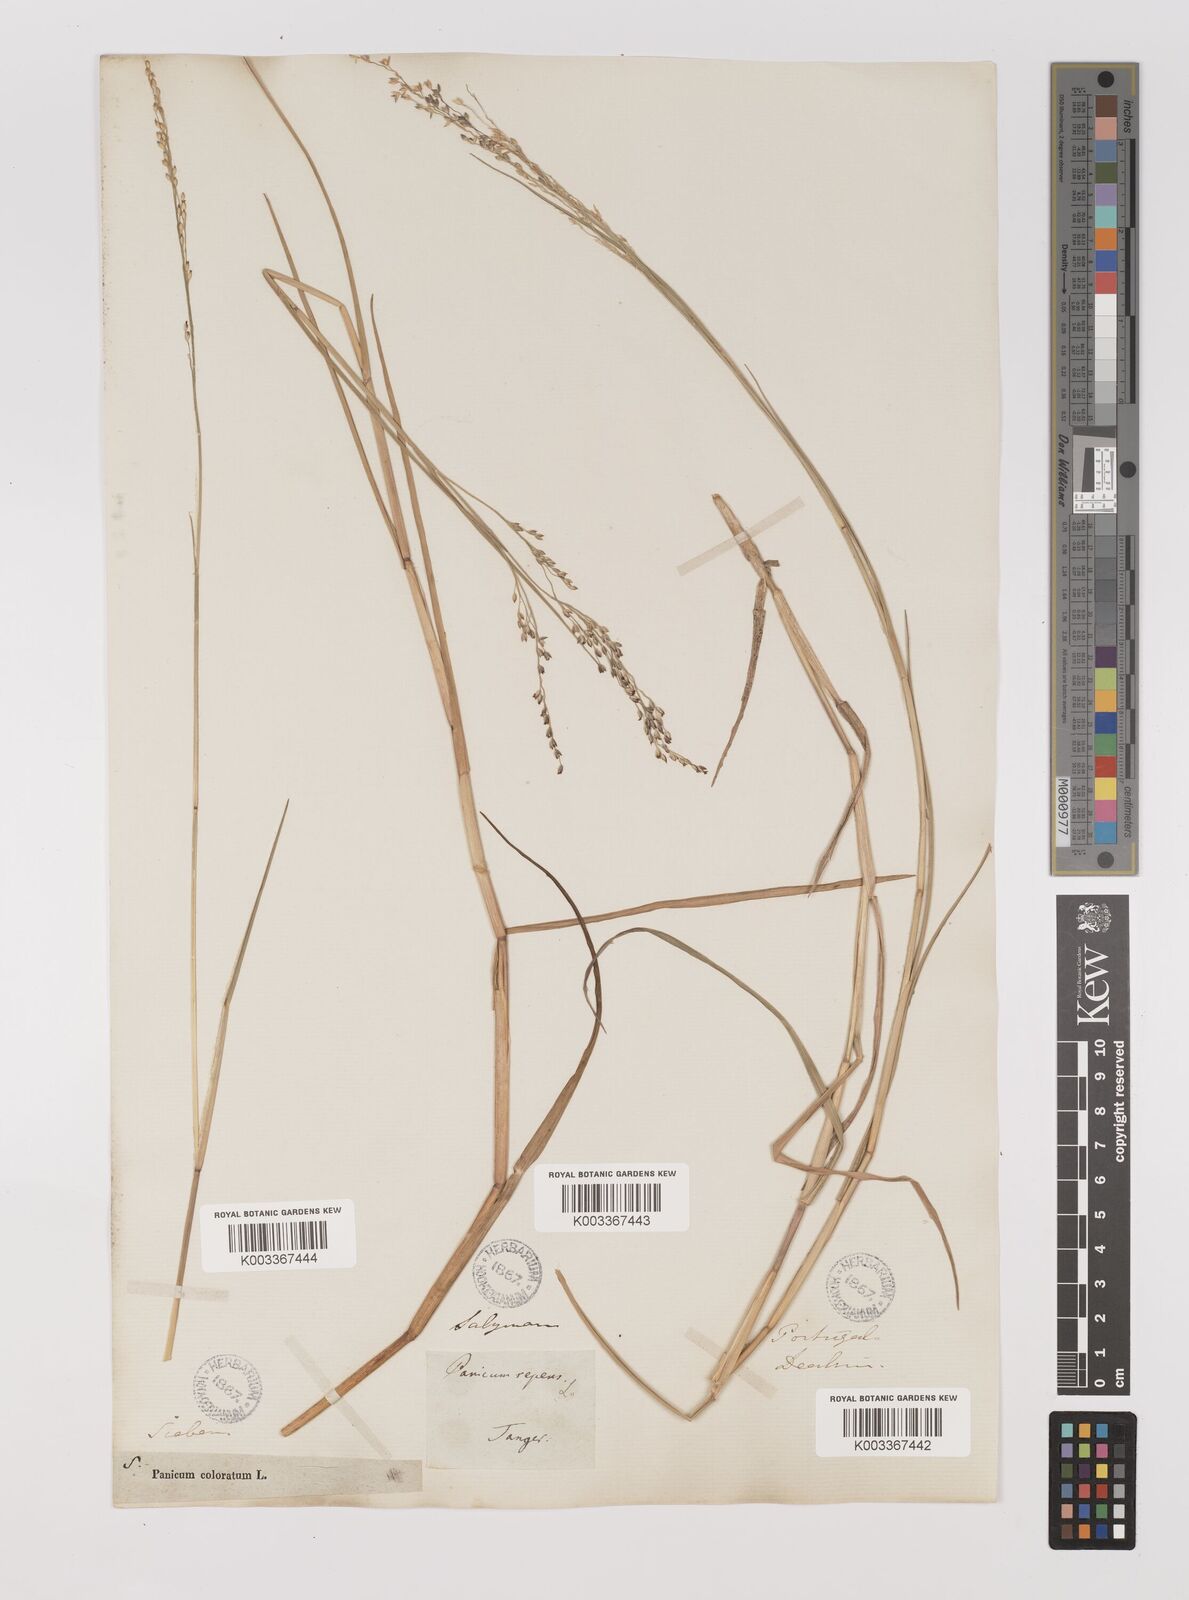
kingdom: Plantae
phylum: Tracheophyta
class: Liliopsida
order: Poales
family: Poaceae
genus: Panicum
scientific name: Panicum repens
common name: Torpedo grass
